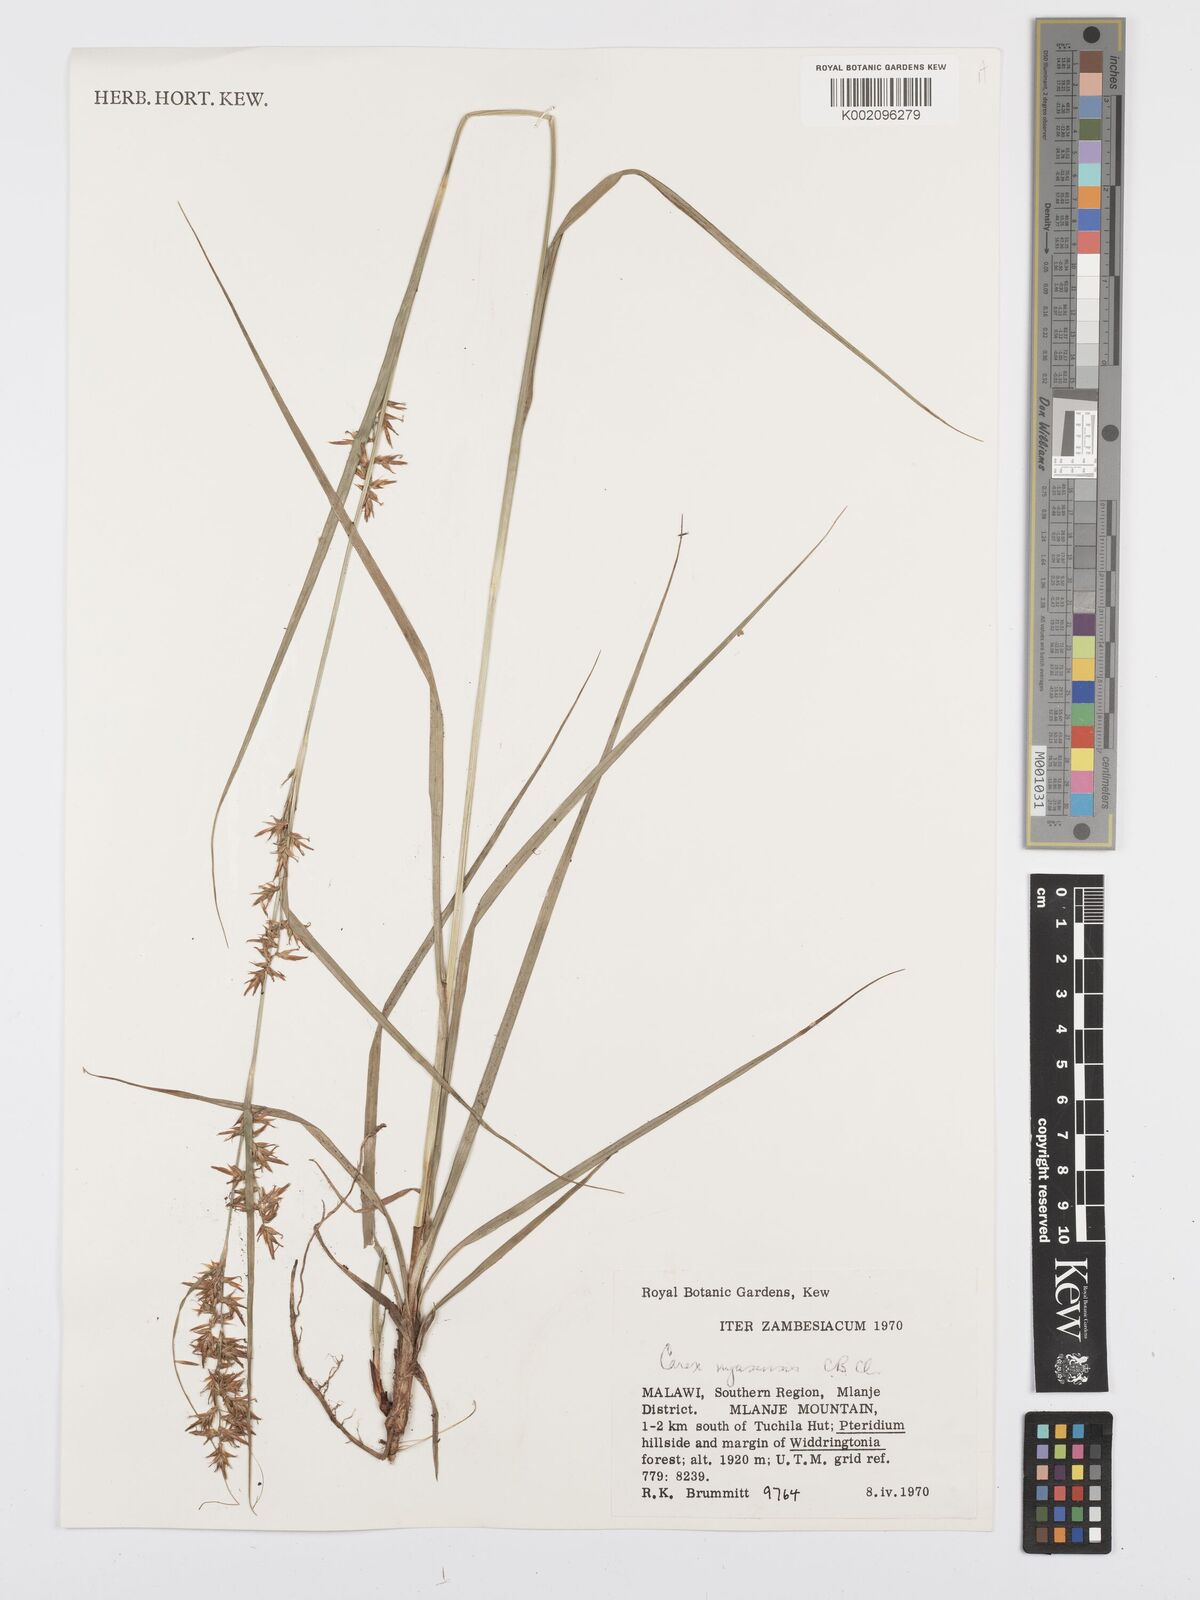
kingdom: Plantae
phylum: Tracheophyta
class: Liliopsida
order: Poales
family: Cyperaceae
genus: Carex
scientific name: Carex spicatopaniculata
